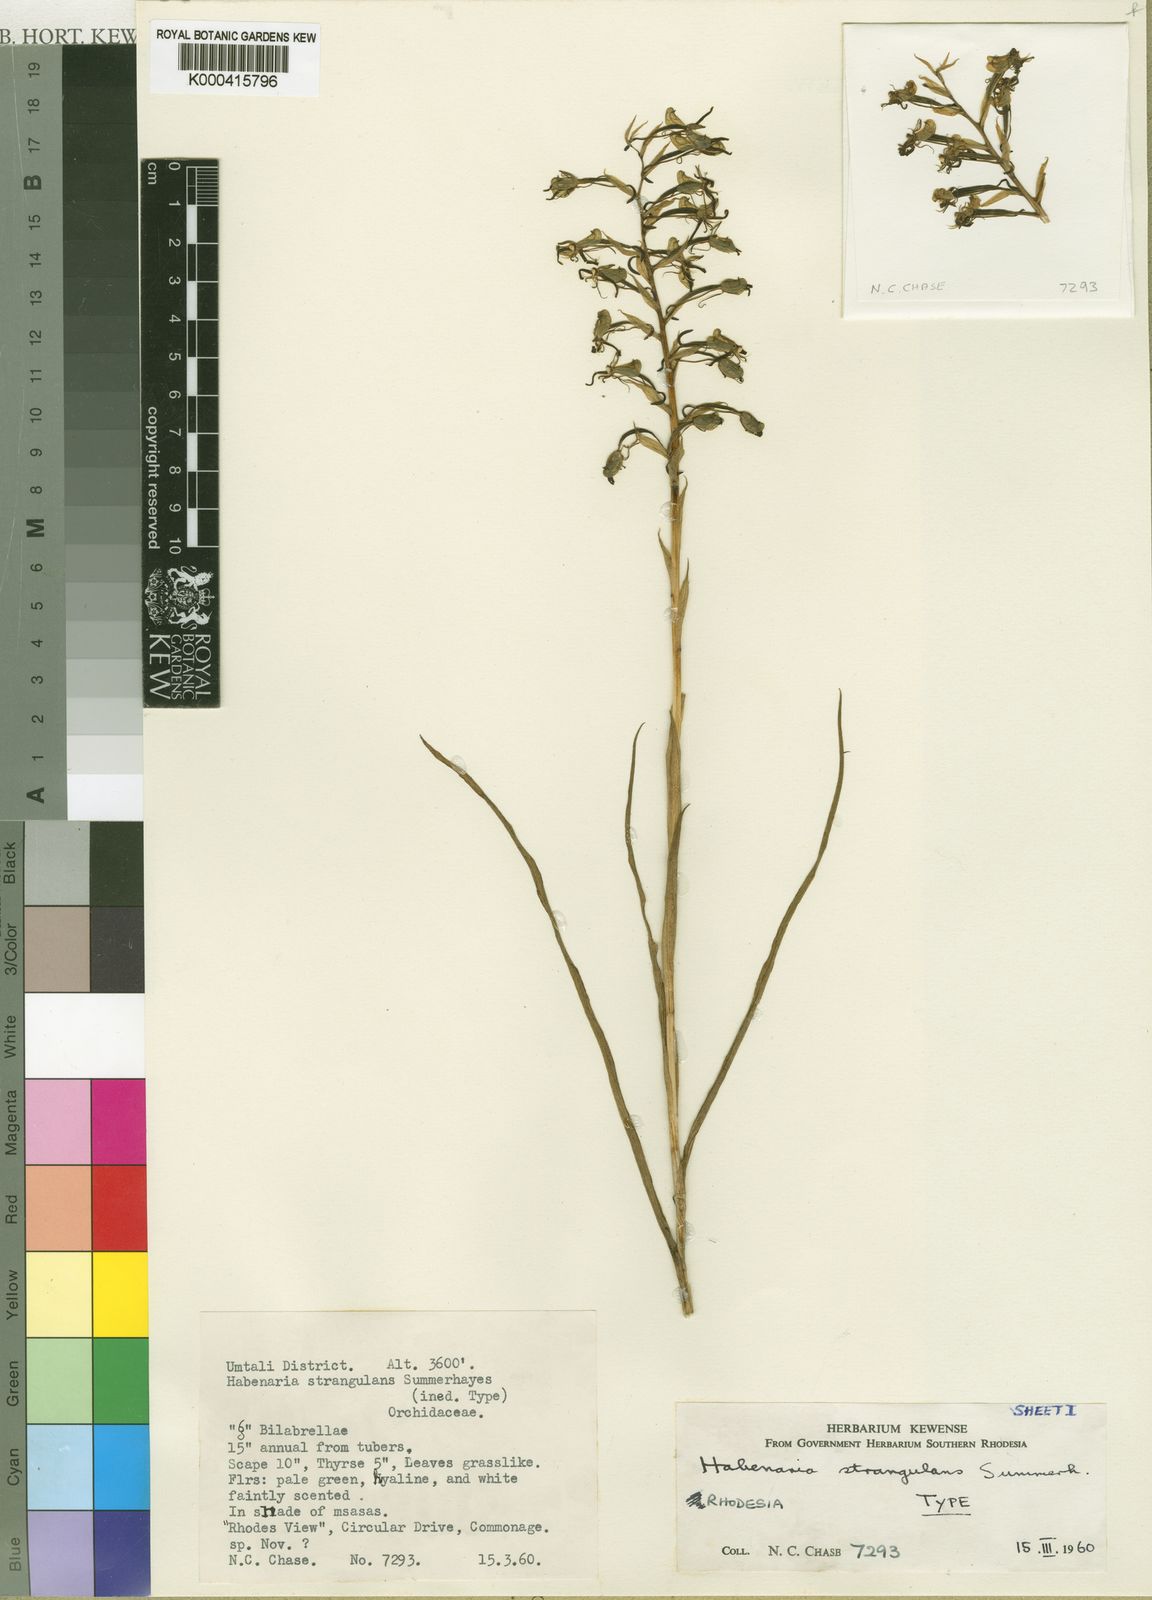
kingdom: Plantae
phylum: Tracheophyta
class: Liliopsida
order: Asparagales
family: Orchidaceae
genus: Habenaria
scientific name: Habenaria strangulans
